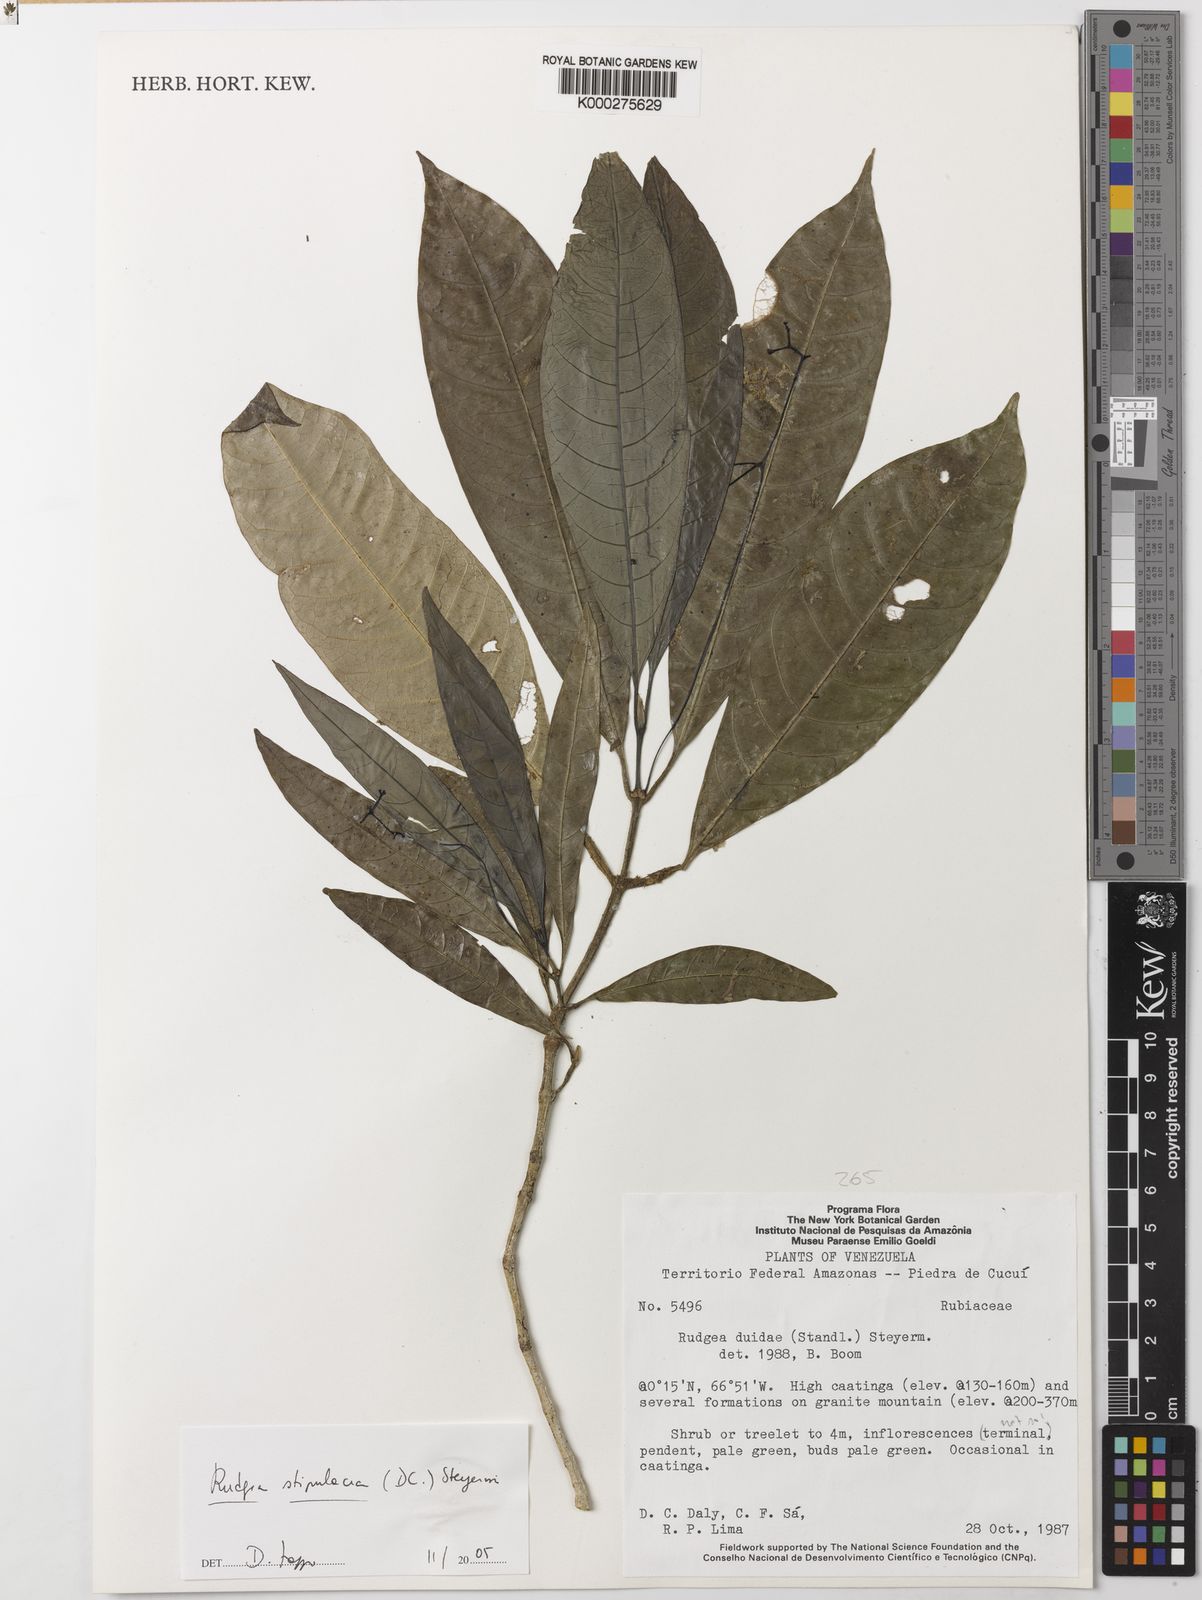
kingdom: Plantae
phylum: Tracheophyta
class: Magnoliopsida
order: Gentianales
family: Rubiaceae
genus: Rudgea
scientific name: Rudgea stipulacea
